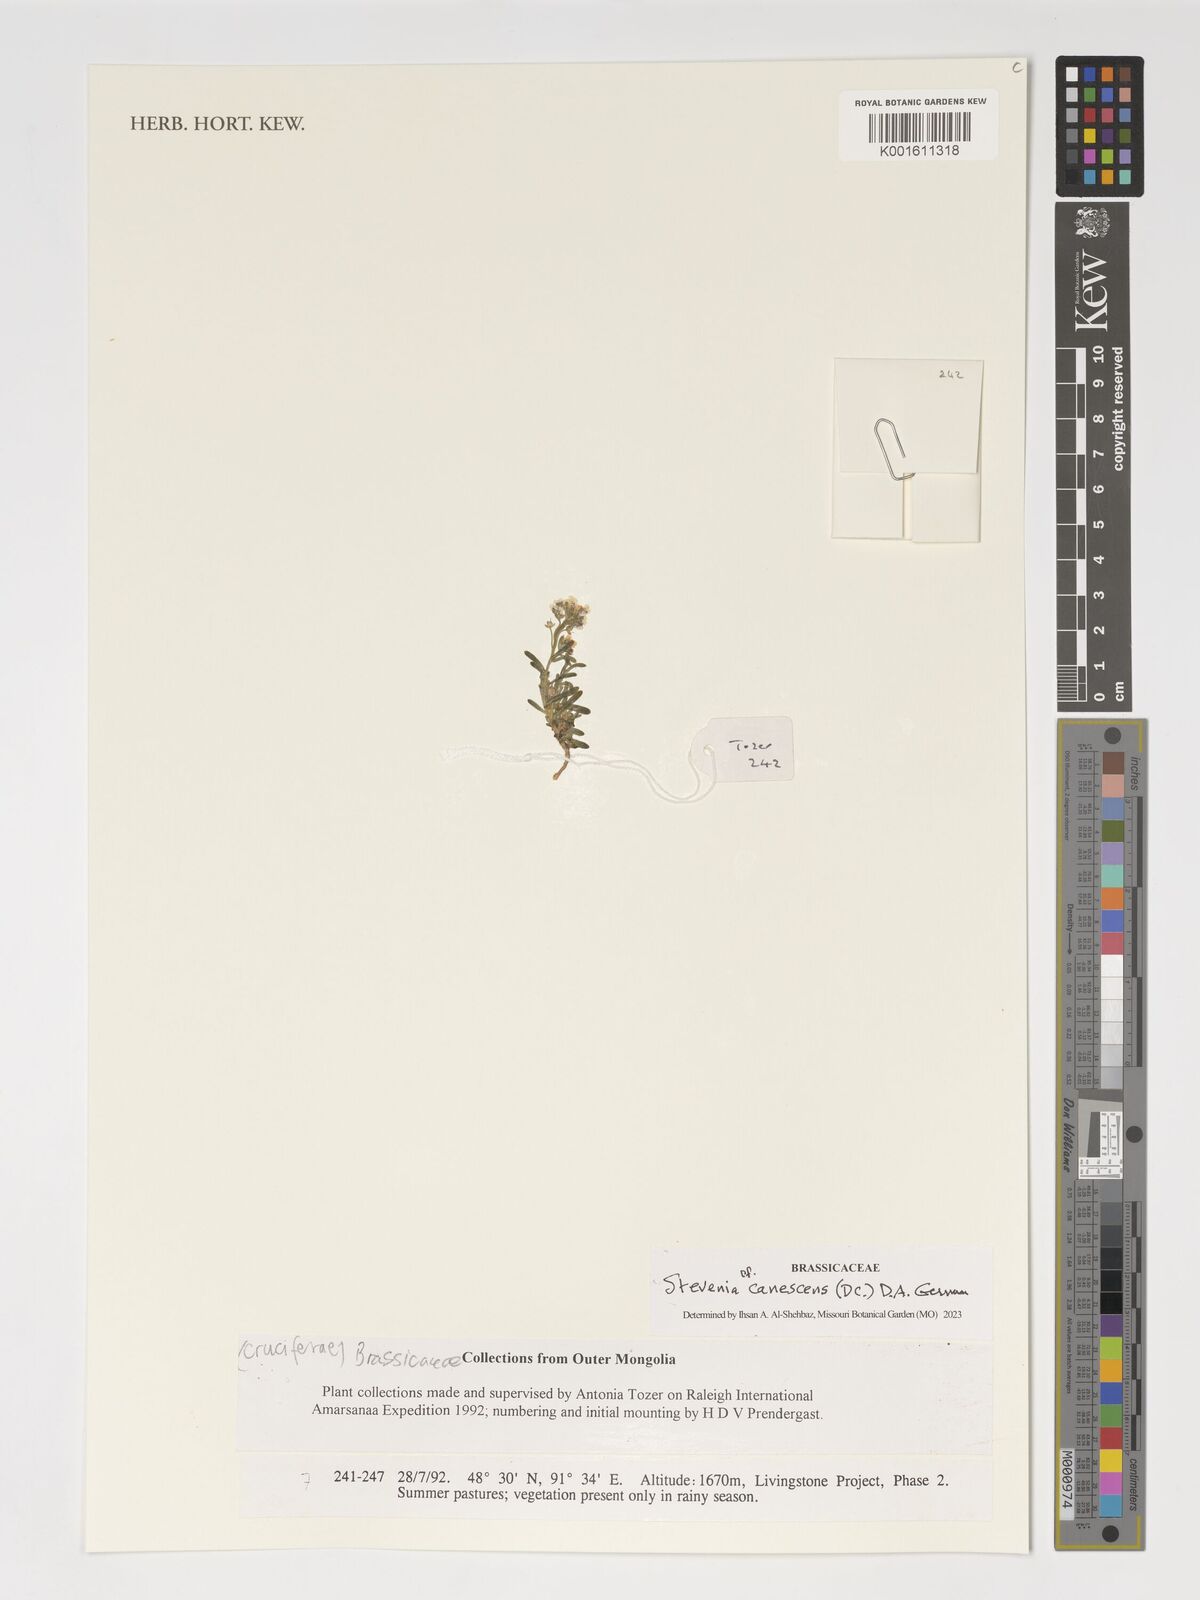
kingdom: Plantae
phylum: Tracheophyta
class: Magnoliopsida
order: Brassicales
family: Brassicaceae
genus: Stevenia
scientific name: Stevenia canescens
